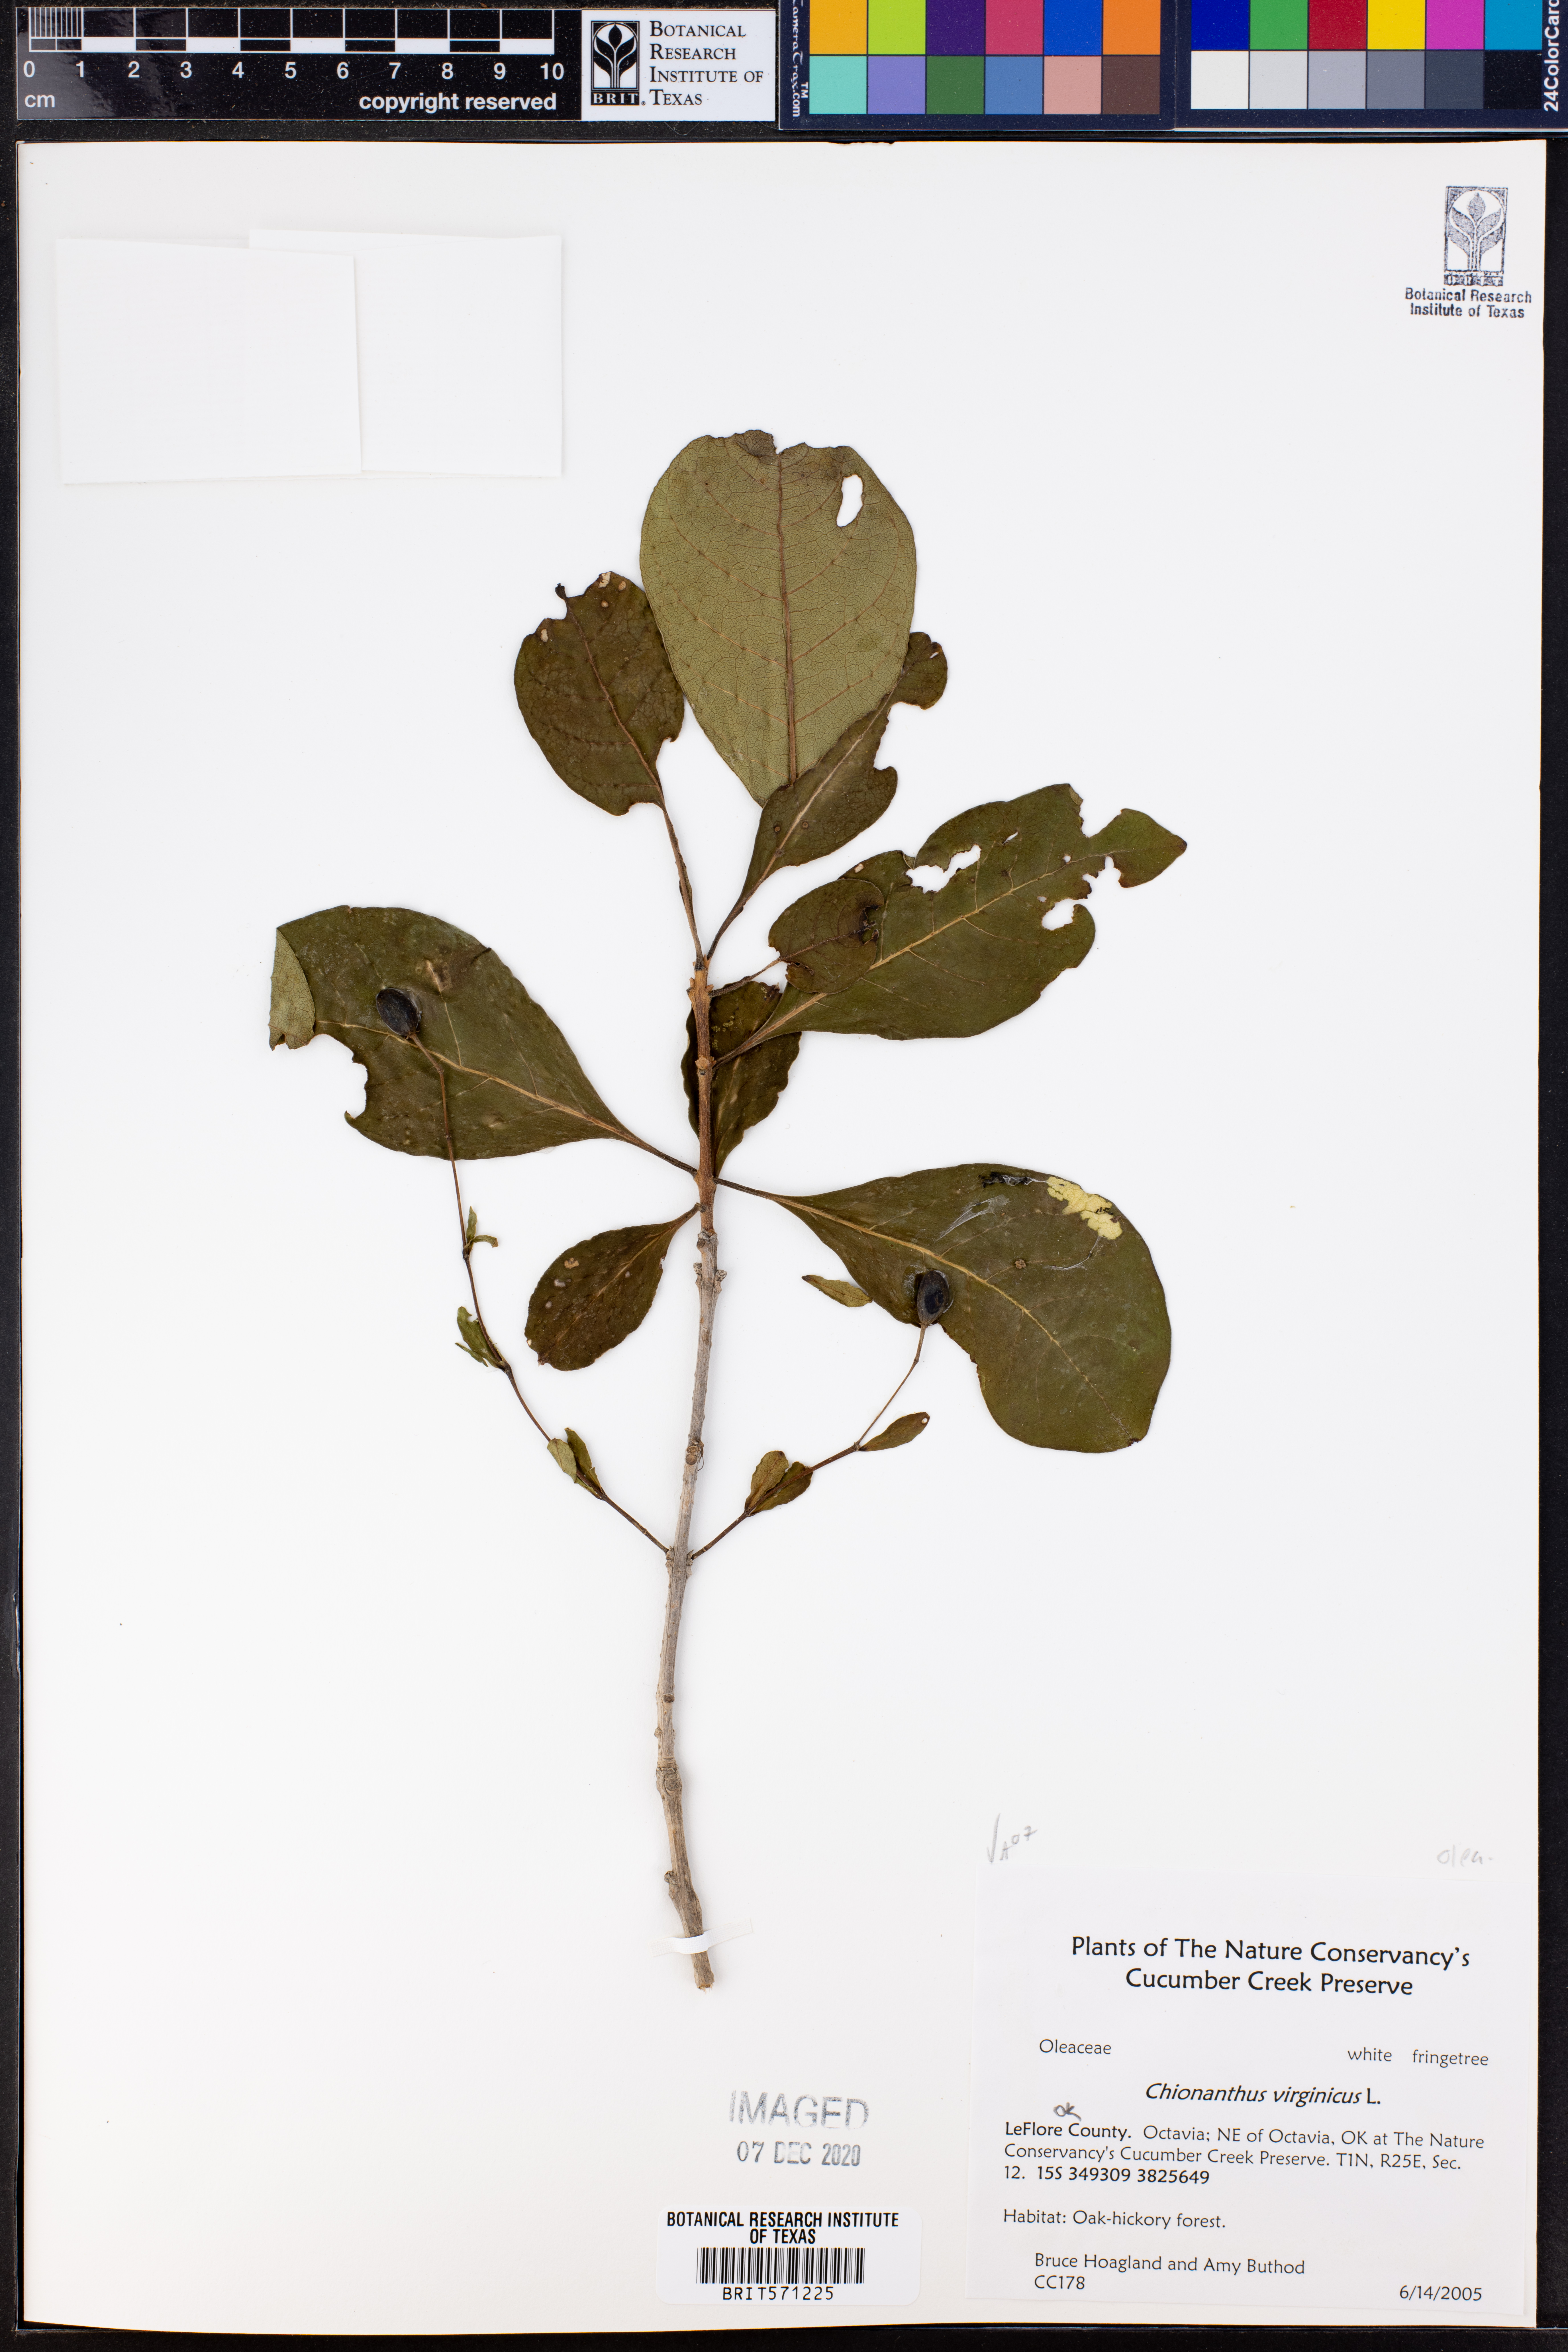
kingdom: Plantae
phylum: Tracheophyta
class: Magnoliopsida
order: Lamiales
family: Oleaceae
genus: Chionanthus
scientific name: Chionanthus virginicus
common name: American fringetree
